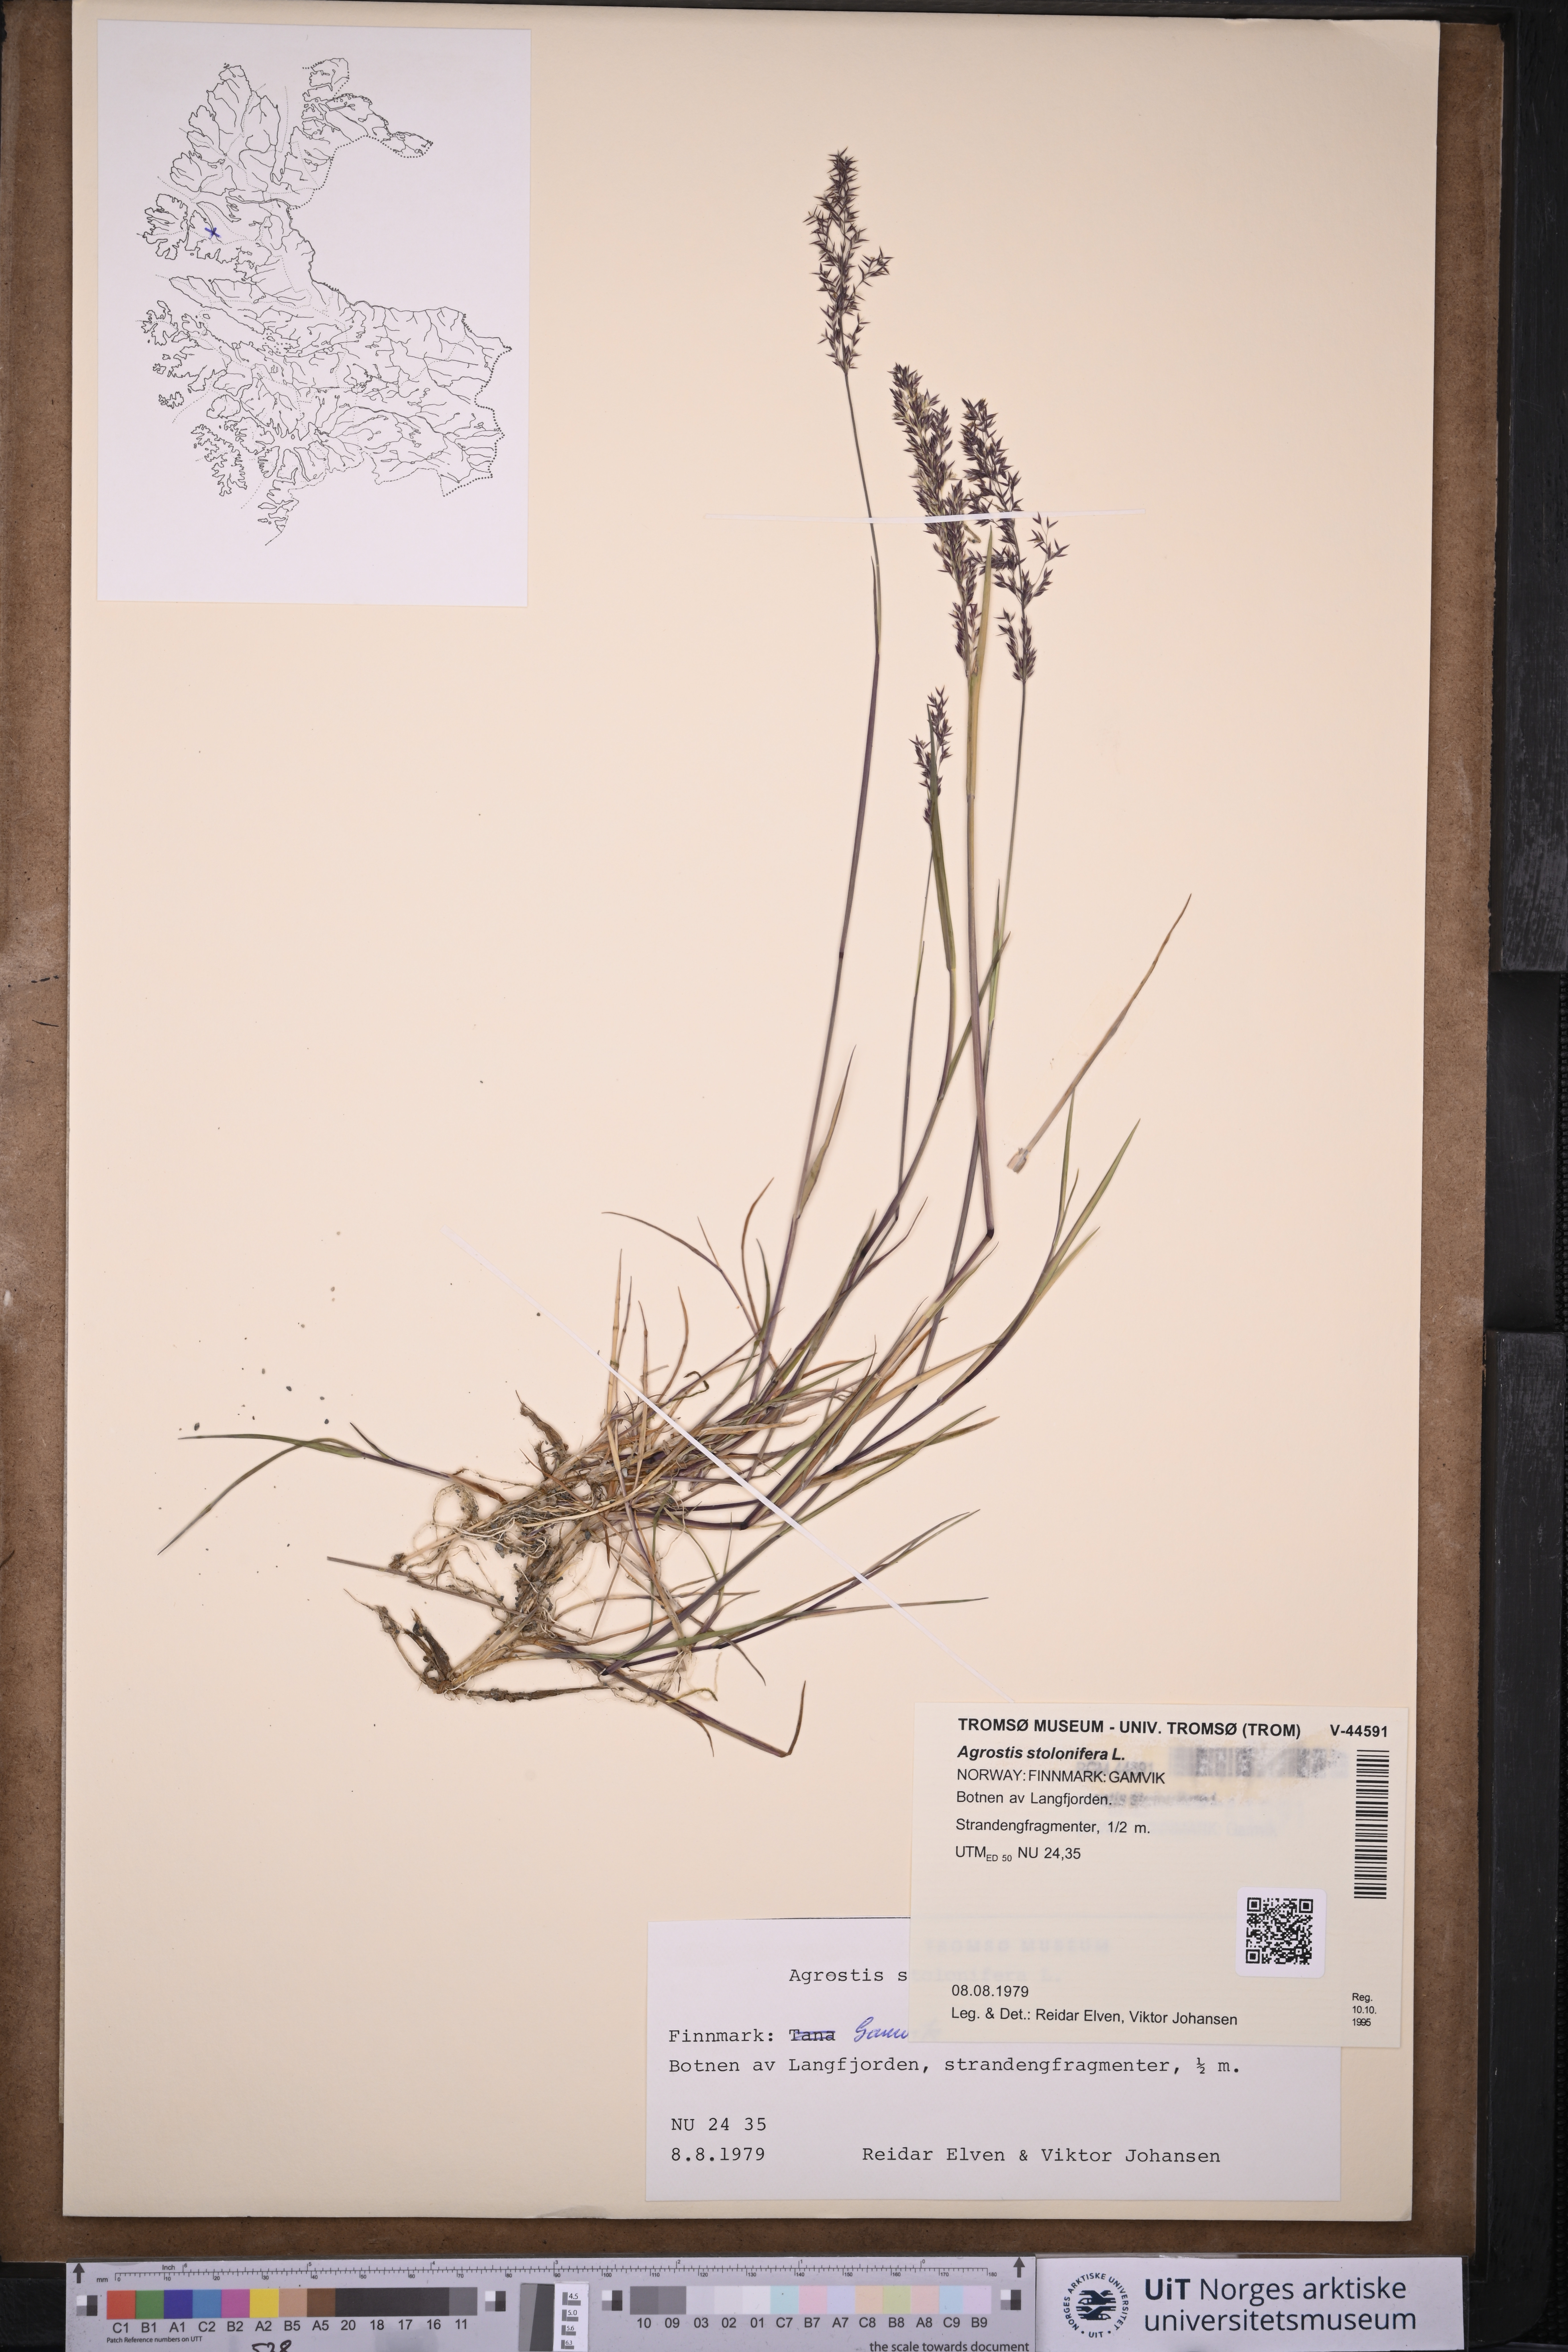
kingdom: Plantae
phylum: Tracheophyta
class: Liliopsida
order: Poales
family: Poaceae
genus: Agrostis
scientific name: Agrostis stolonifera
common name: Creeping bentgrass
